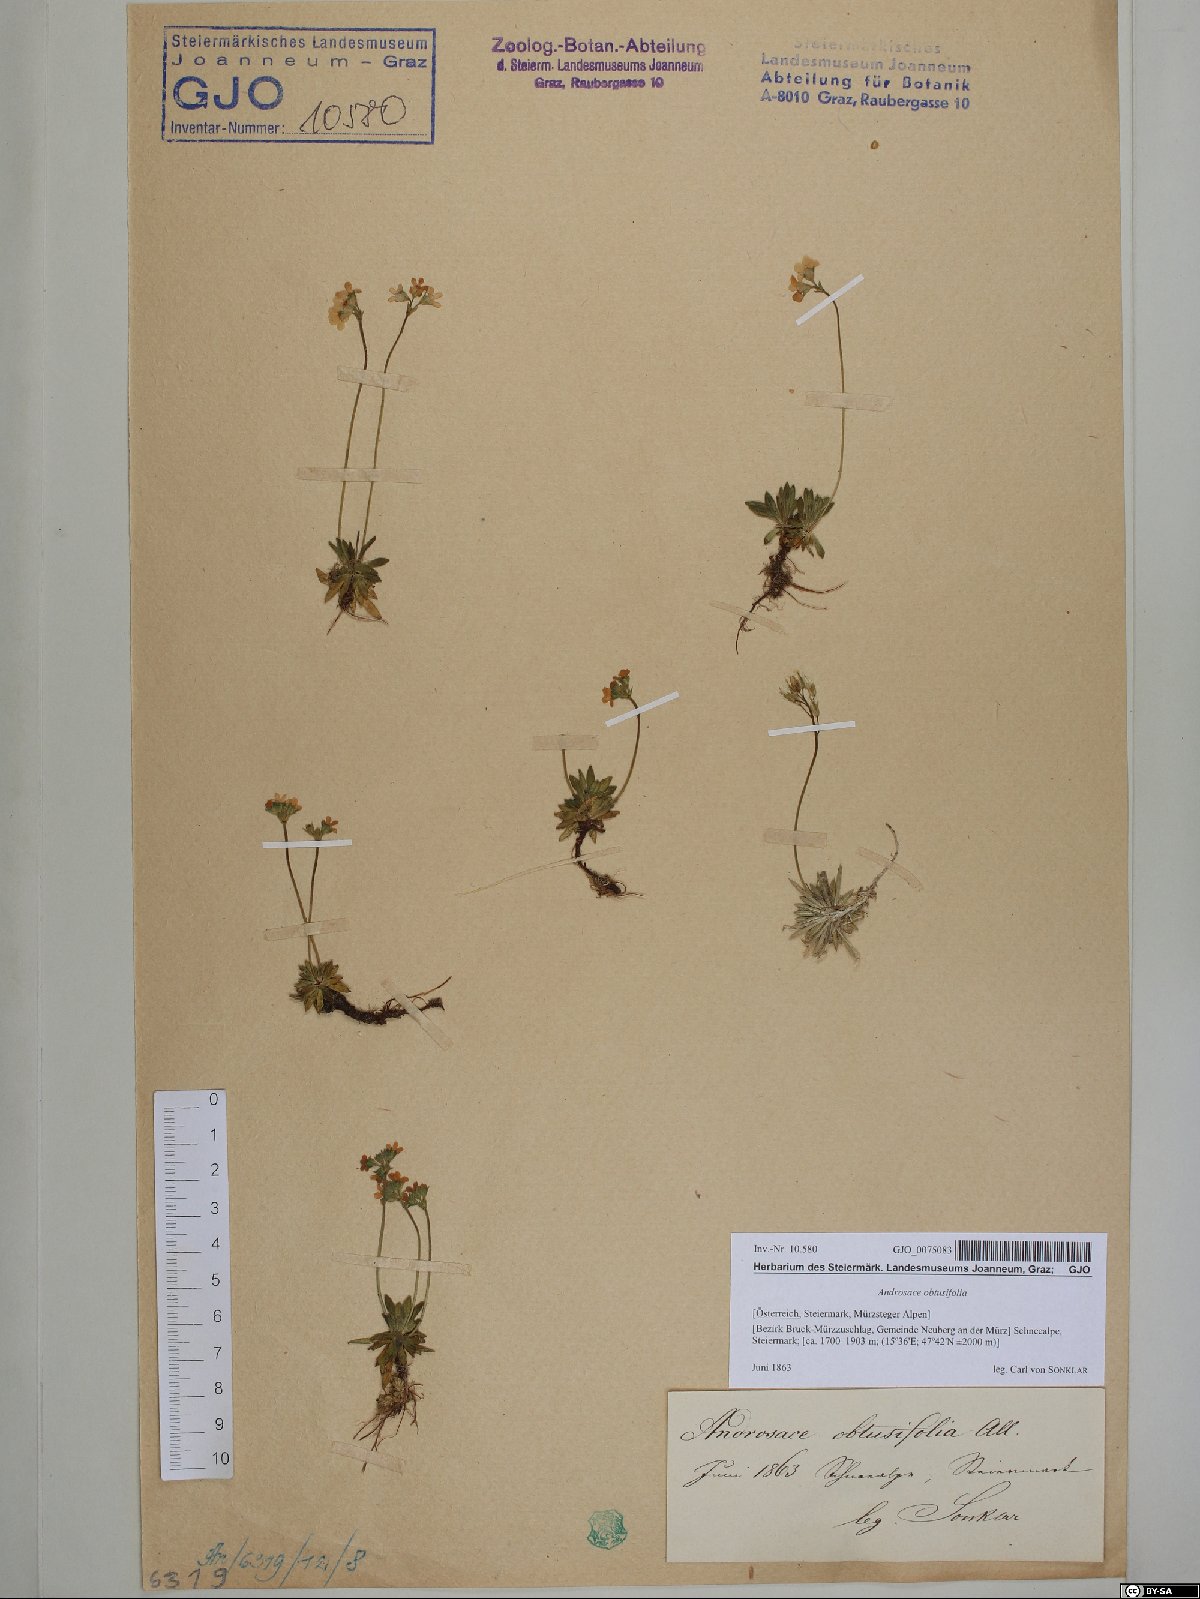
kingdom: Plantae
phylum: Tracheophyta
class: Magnoliopsida
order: Ericales
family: Primulaceae
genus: Androsace
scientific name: Androsace obtusifolia
